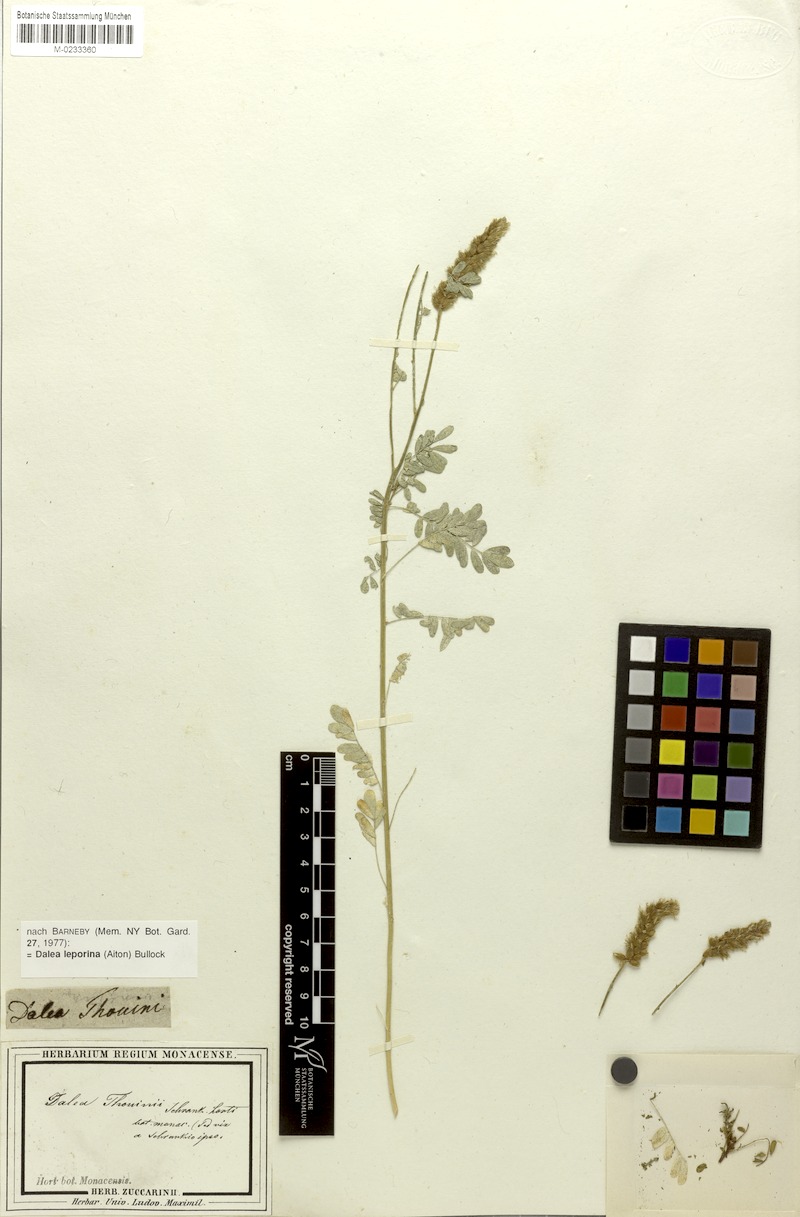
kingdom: Plantae
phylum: Tracheophyta
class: Magnoliopsida
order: Fabales
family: Fabaceae
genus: Dalea
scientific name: Dalea leporina
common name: Foxtail dalea
